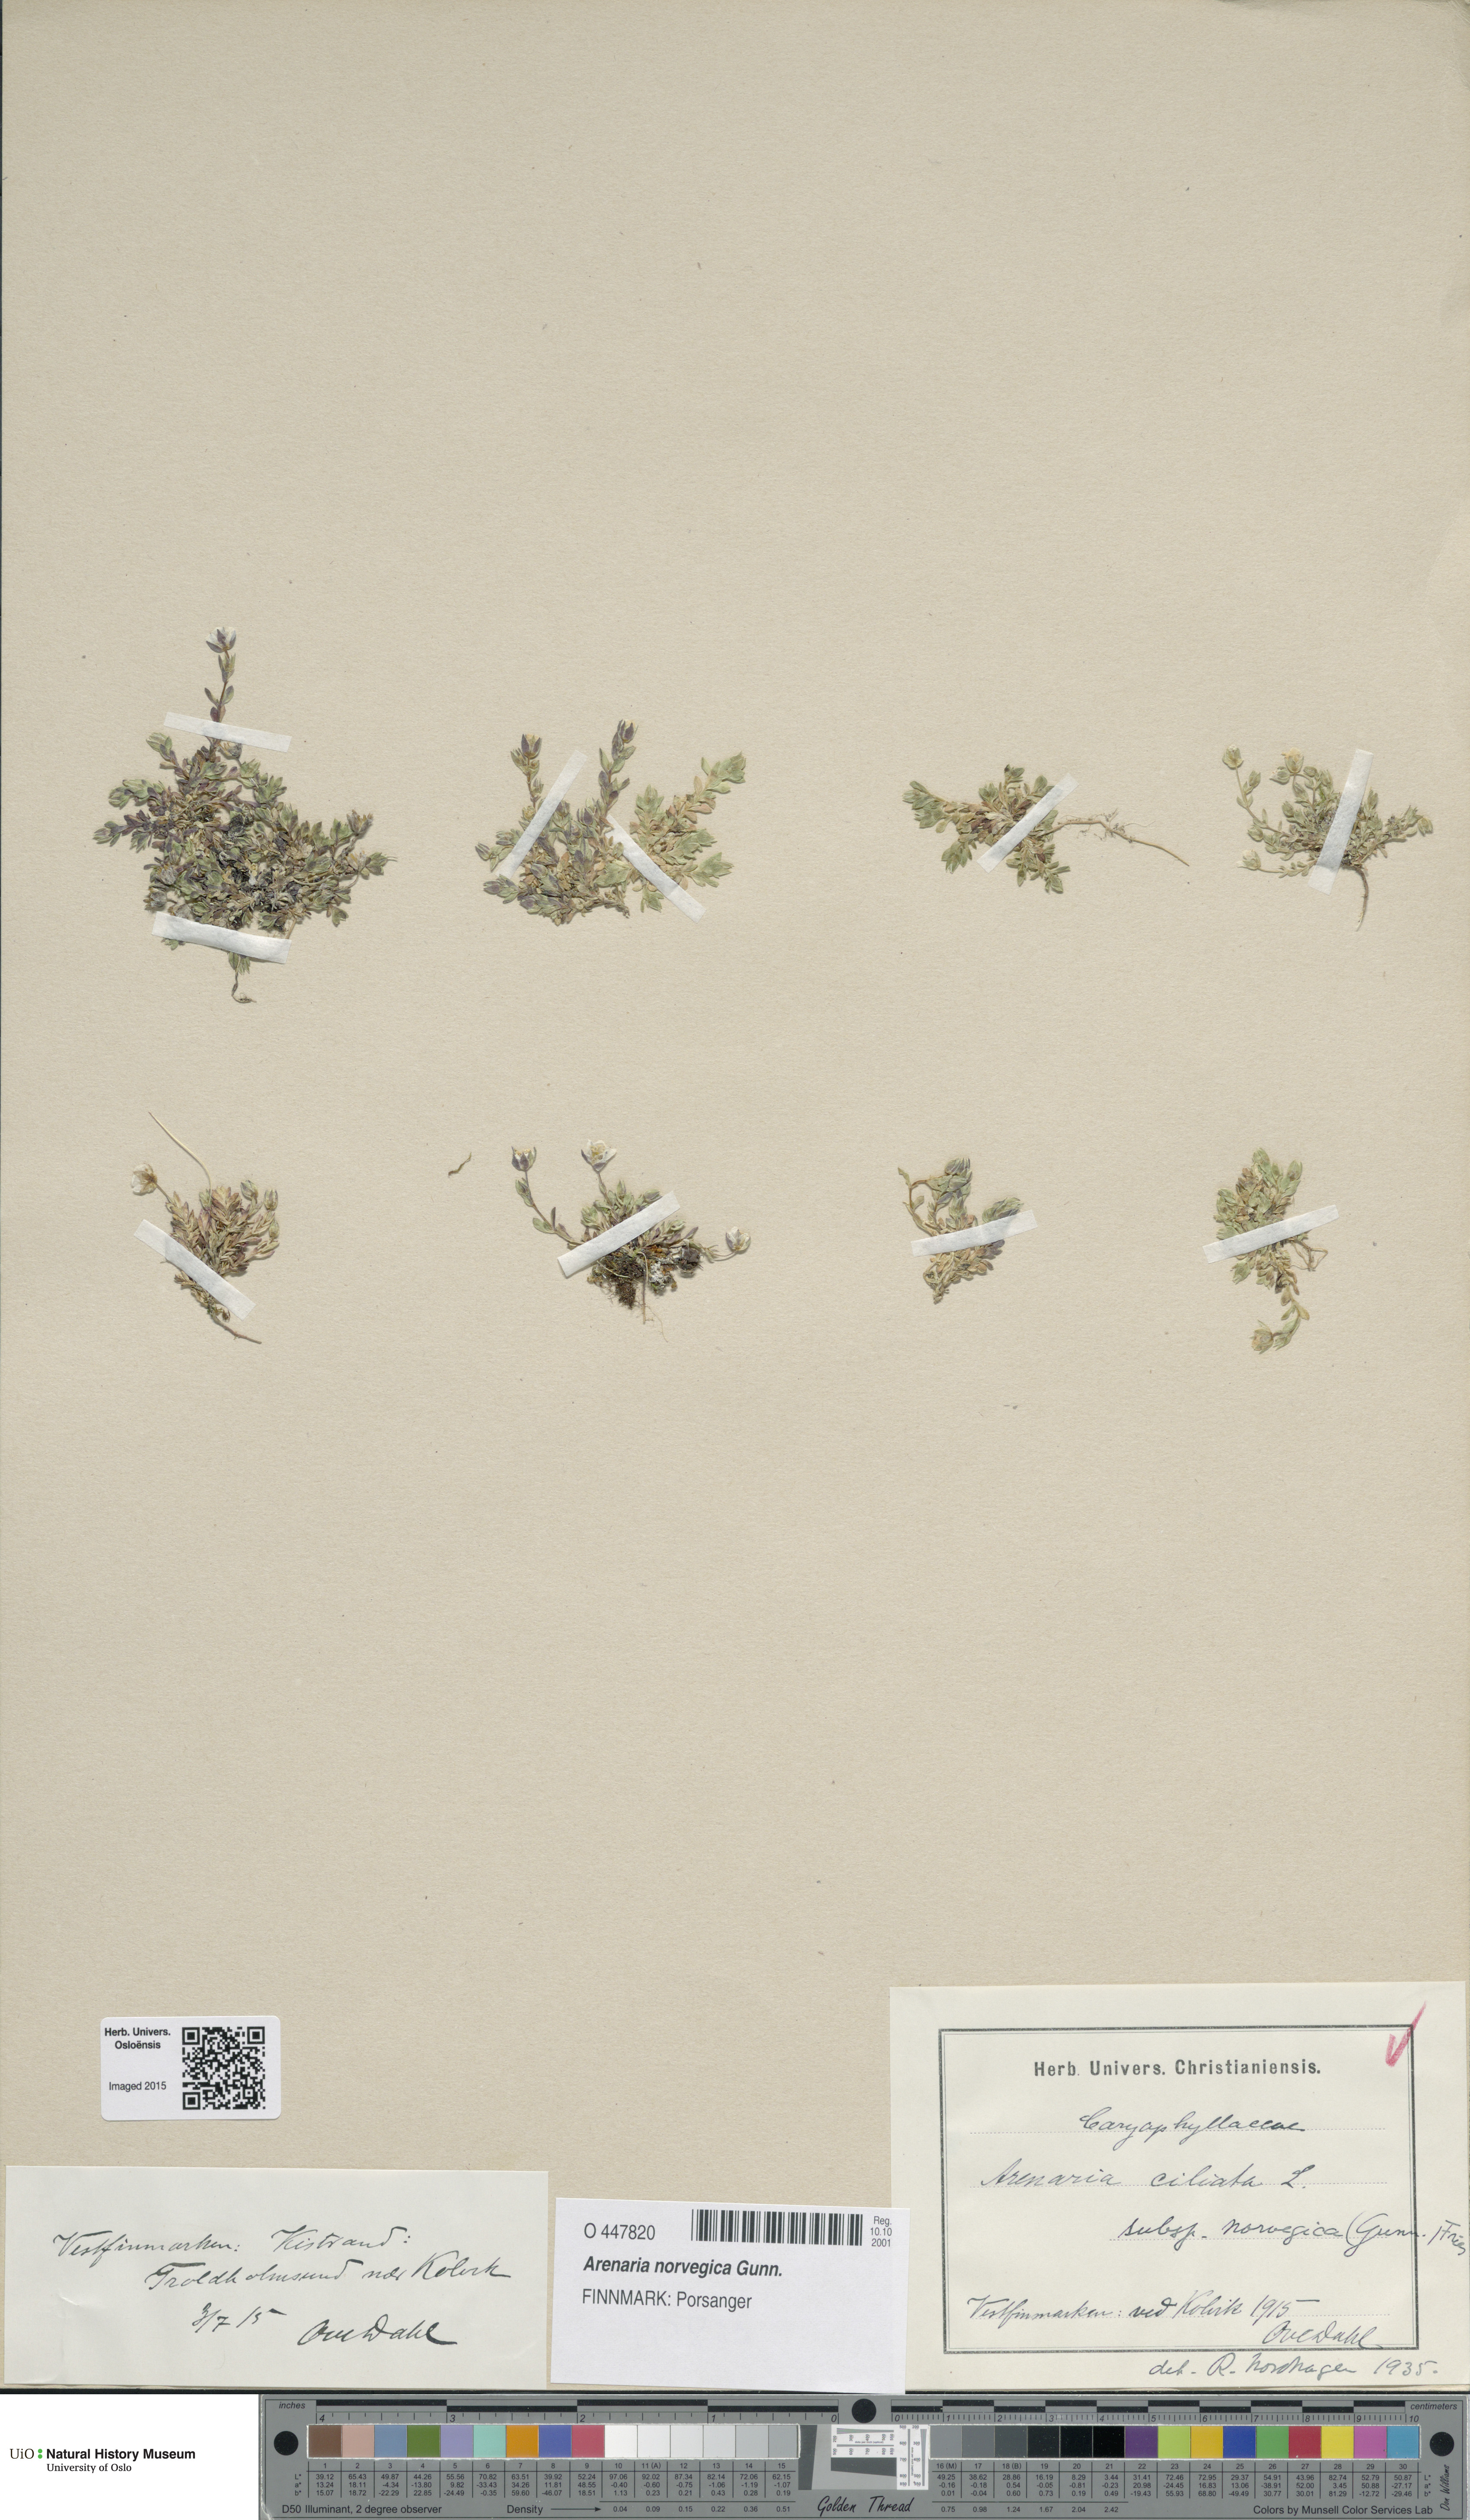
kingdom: Plantae
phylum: Tracheophyta
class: Magnoliopsida
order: Caryophyllales
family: Caryophyllaceae
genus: Arenaria
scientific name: Arenaria norvegica
